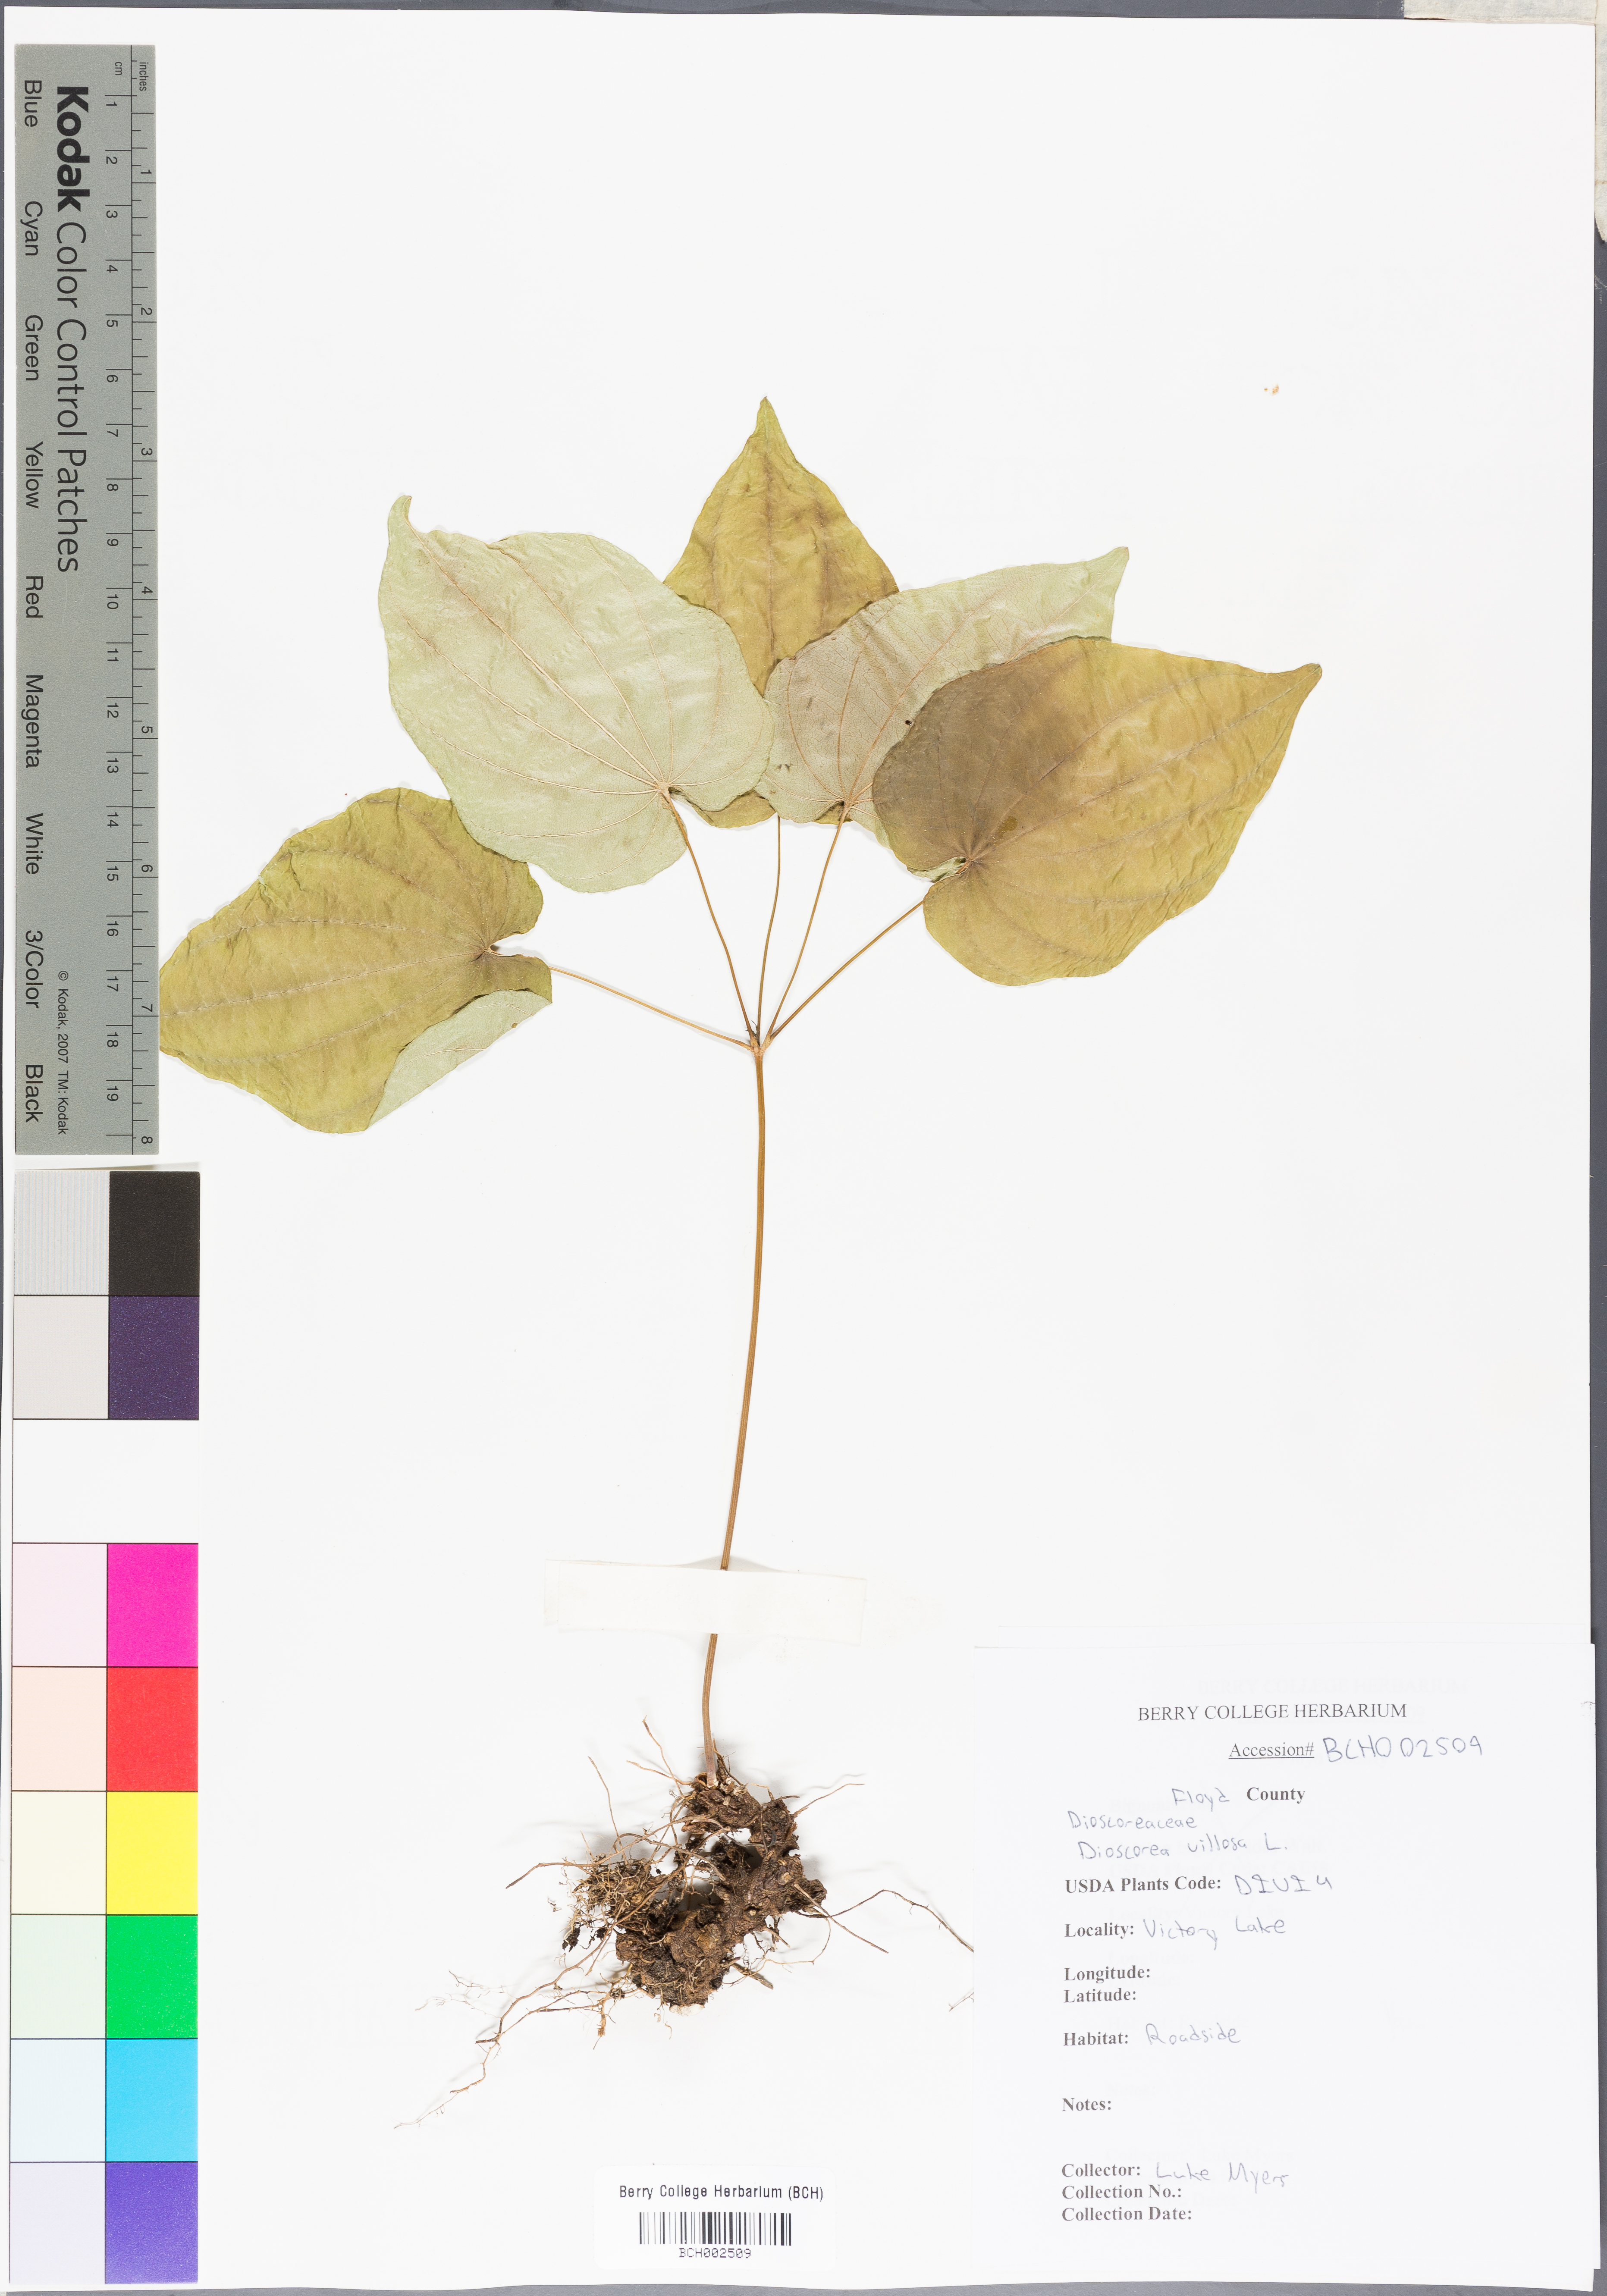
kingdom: Plantae
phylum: Tracheophyta
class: Liliopsida
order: Dioscoreales
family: Dioscoreaceae
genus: Dioscorea
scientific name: Dioscorea villosa
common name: Wild yam
